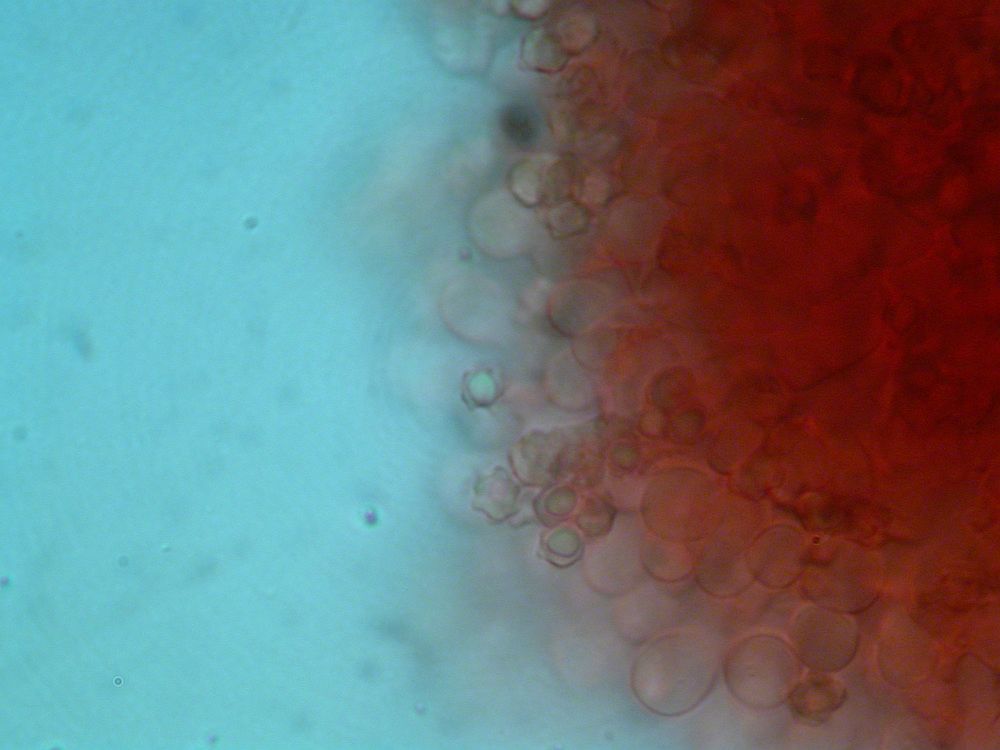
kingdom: Fungi
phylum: Basidiomycota
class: Agaricomycetes
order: Thelephorales
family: Bankeraceae
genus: Hydnellum
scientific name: Hydnellum gracilipes
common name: tyndstokket korkpigsvamp
